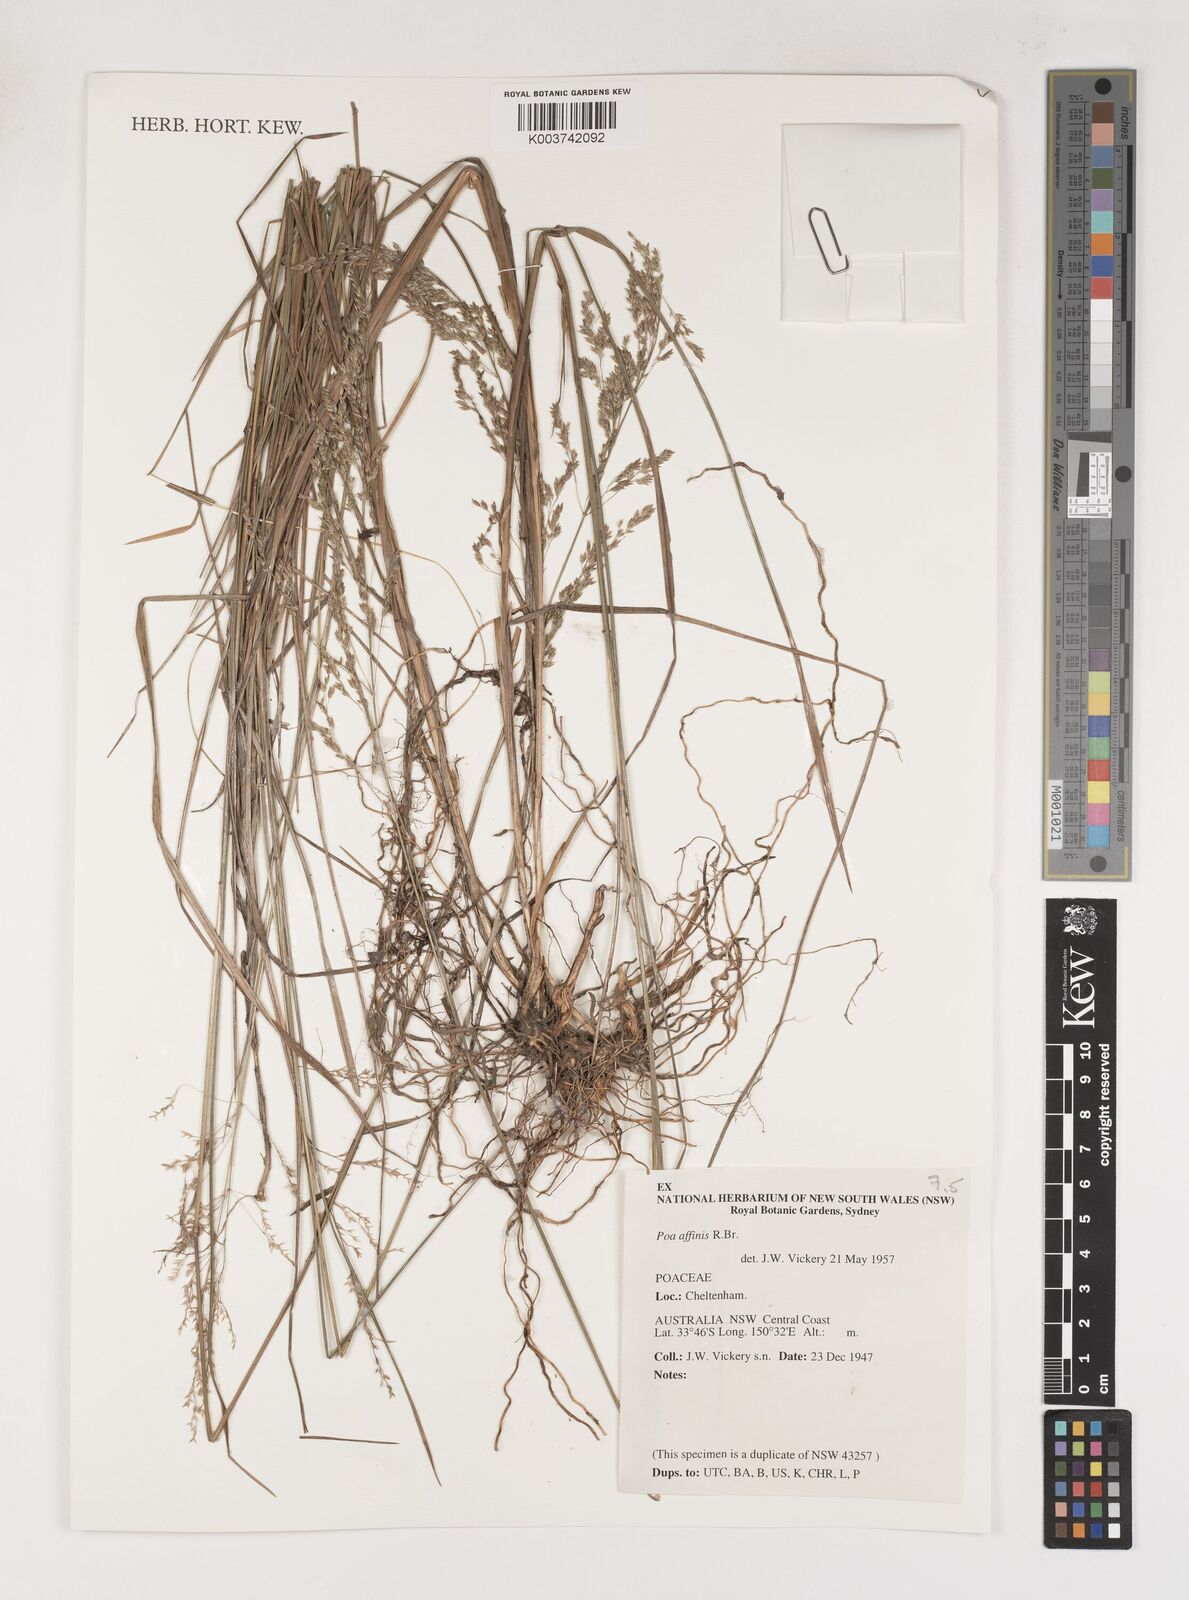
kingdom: Plantae
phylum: Tracheophyta
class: Liliopsida
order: Poales
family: Poaceae
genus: Poa
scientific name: Poa affinis
